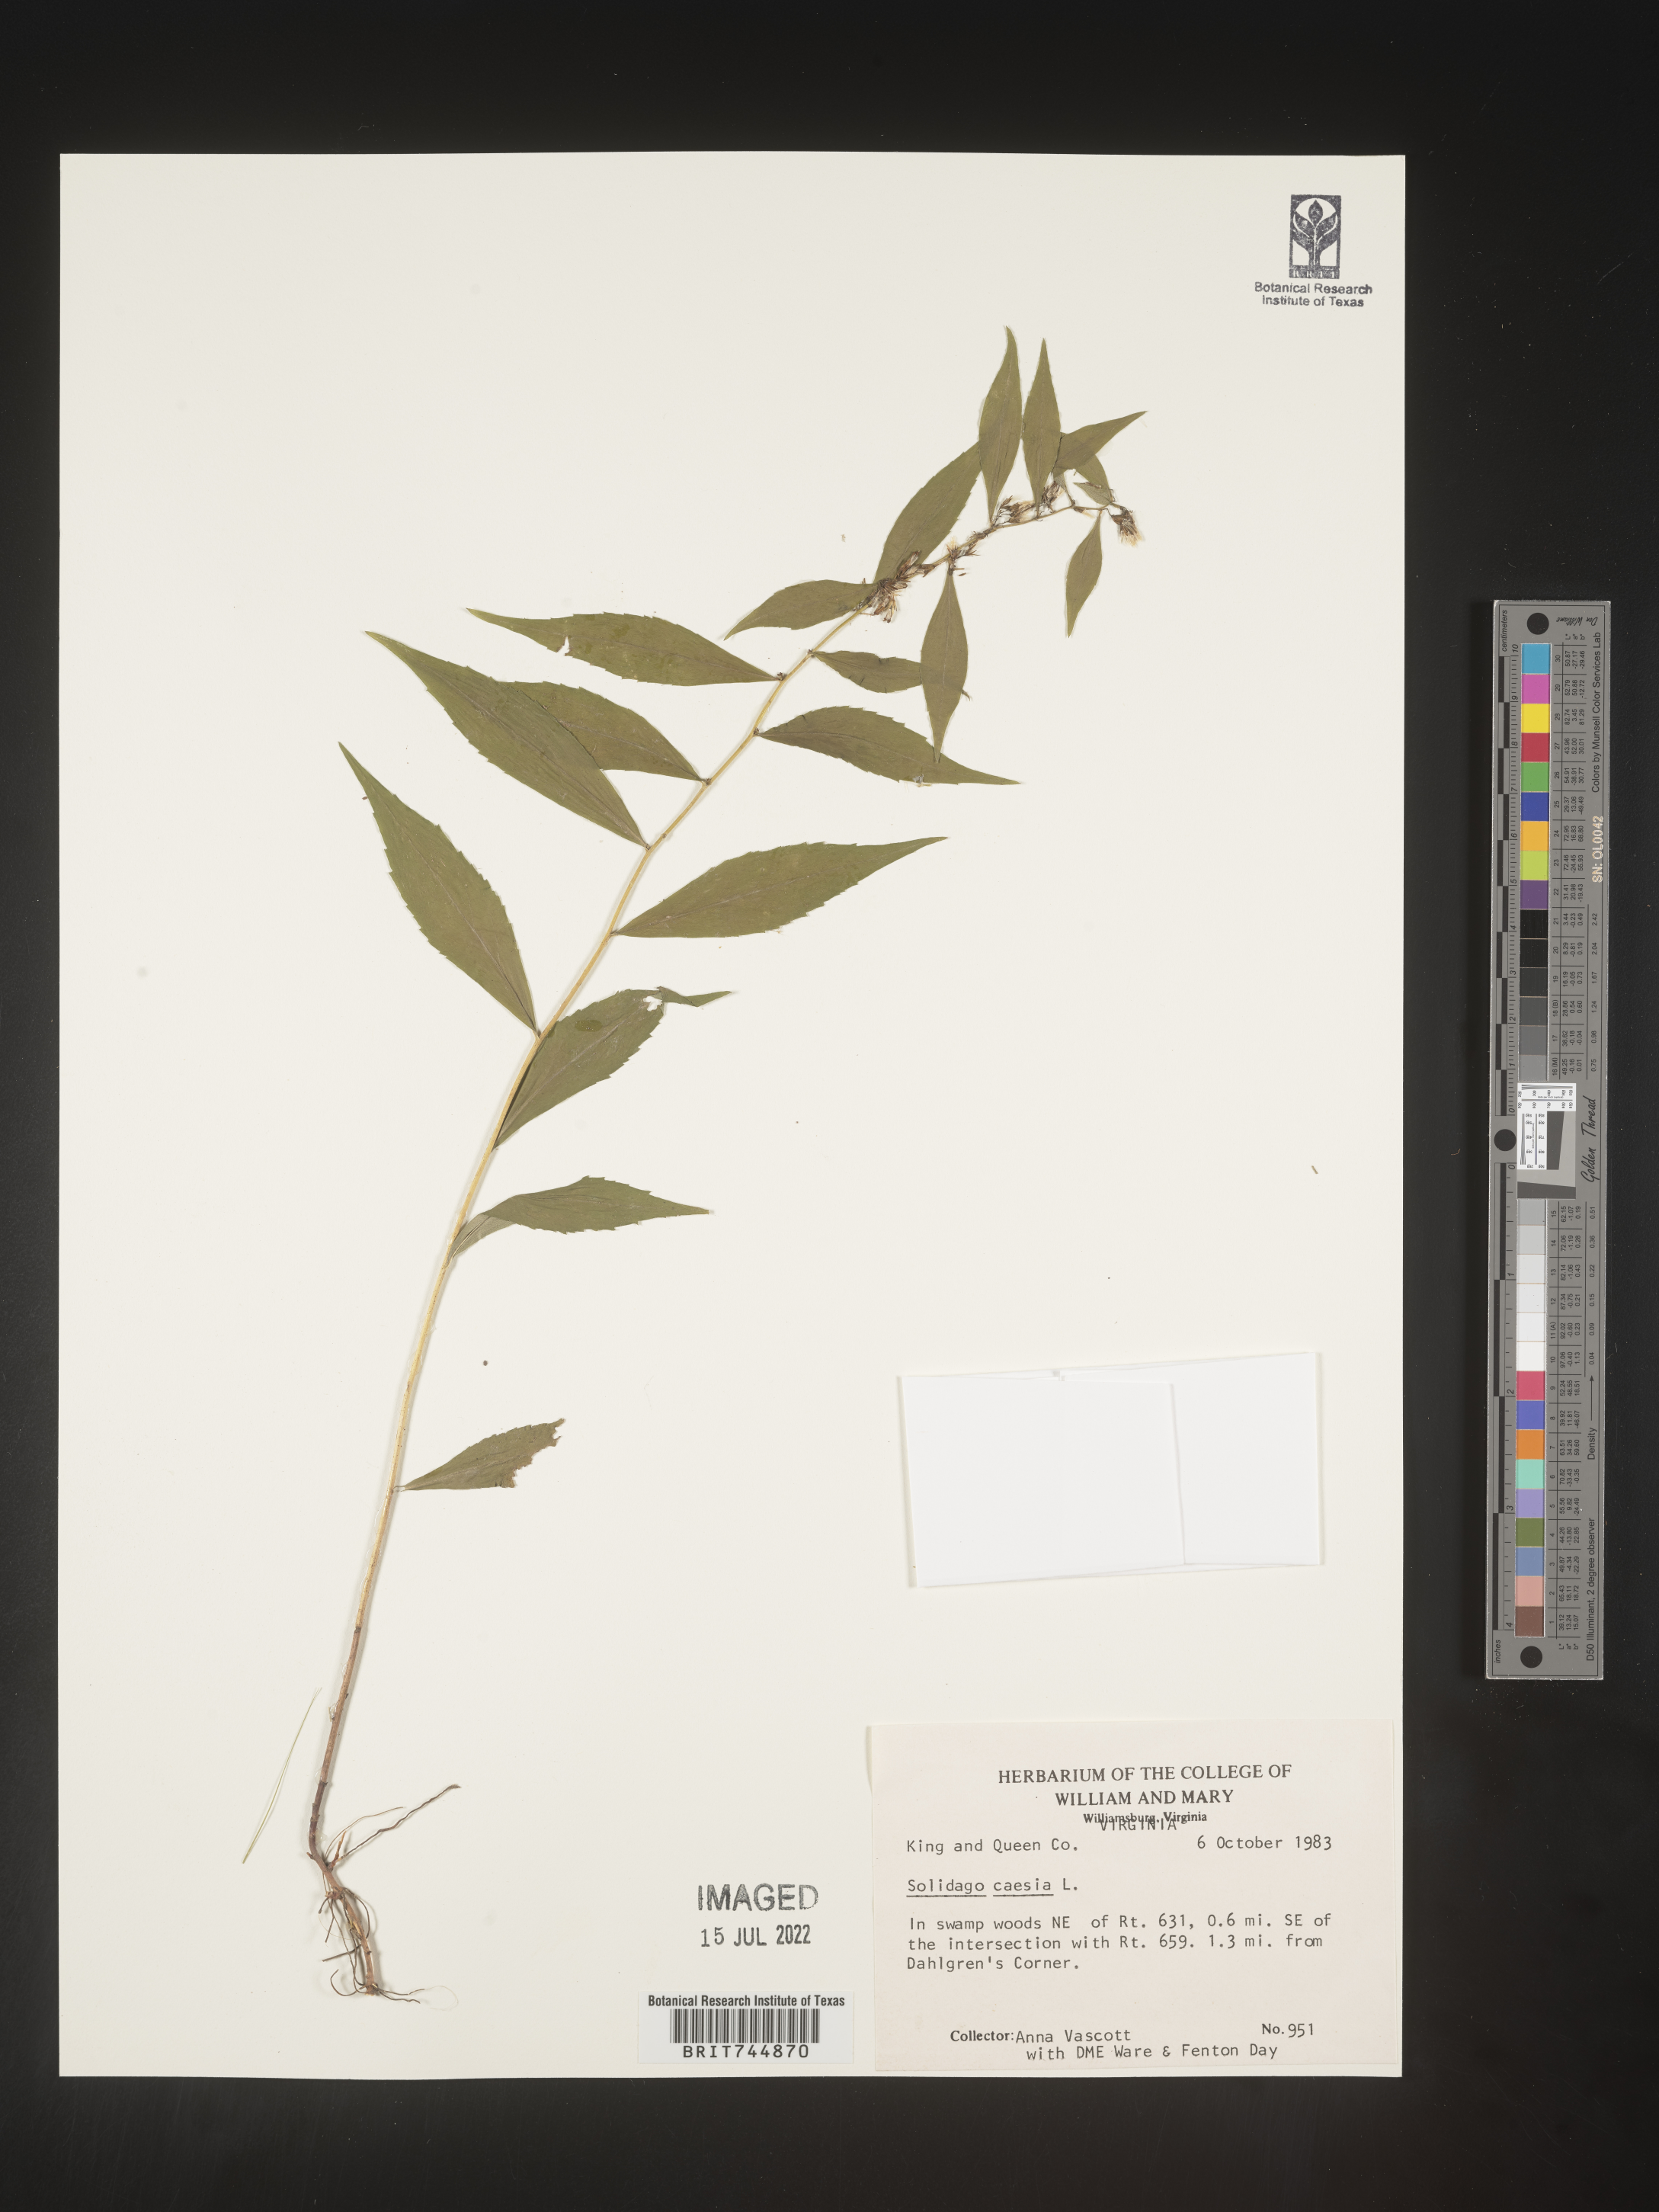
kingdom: Plantae
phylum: Tracheophyta
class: Magnoliopsida
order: Asterales
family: Asteraceae
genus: Solidago
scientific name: Solidago caesia
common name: Woodland goldenrod
